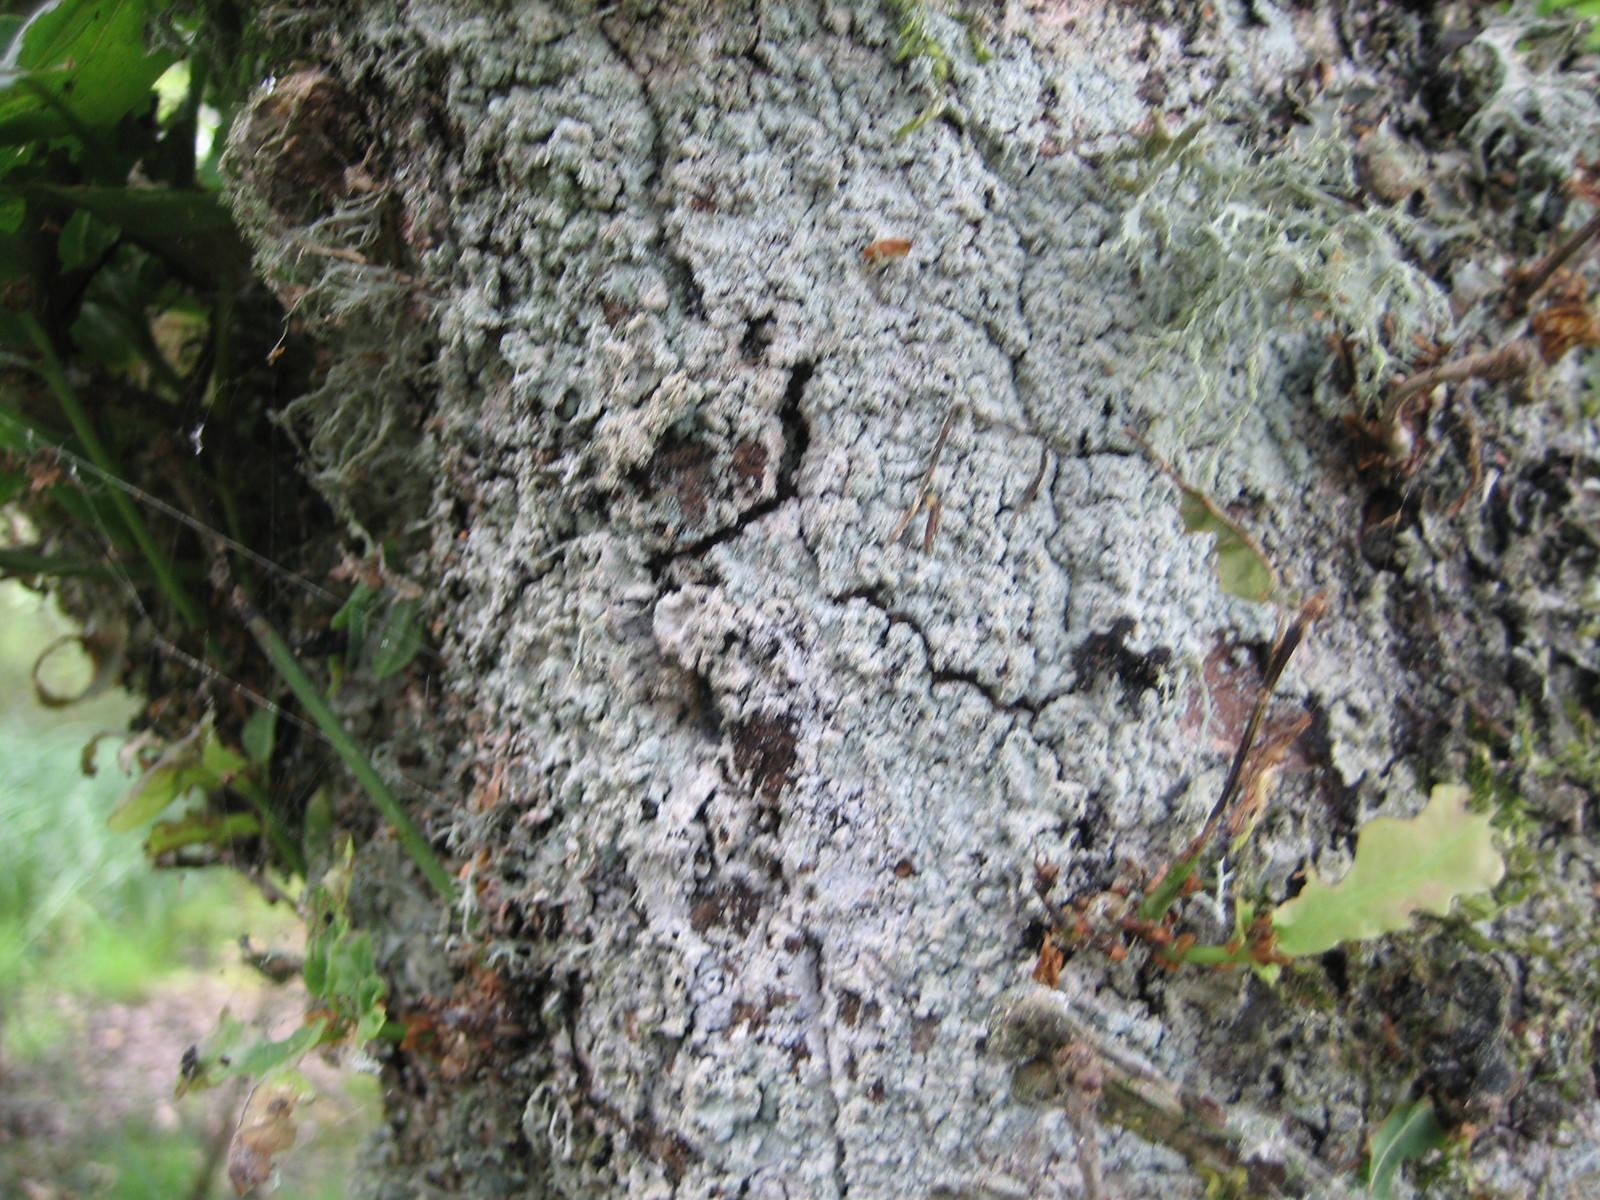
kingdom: Fungi
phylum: Ascomycota
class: Lecanoromycetes
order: Lecanorales
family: Stereocaulaceae
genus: Lepraria
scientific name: Lepraria incana
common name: almindelig støvlav
